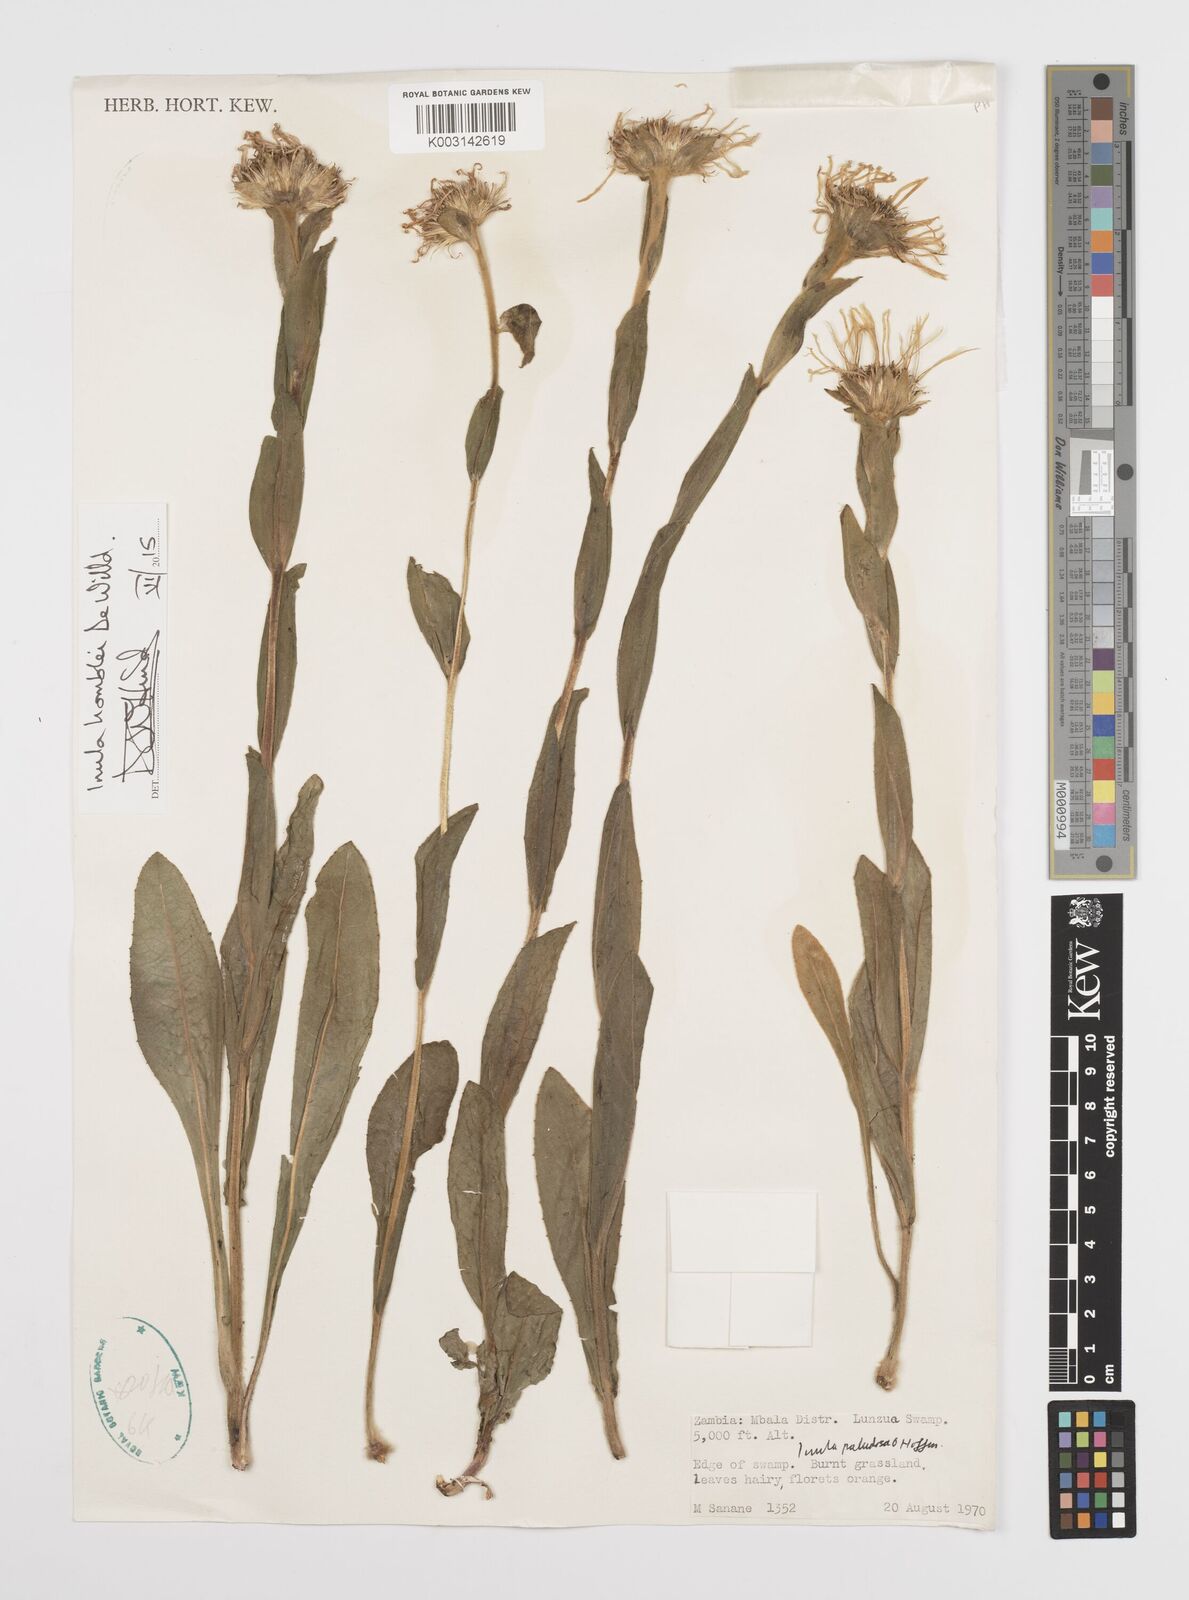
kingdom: Plantae
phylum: Tracheophyta
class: Magnoliopsida
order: Asterales
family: Asteraceae
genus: Inula
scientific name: Inula paludosa
